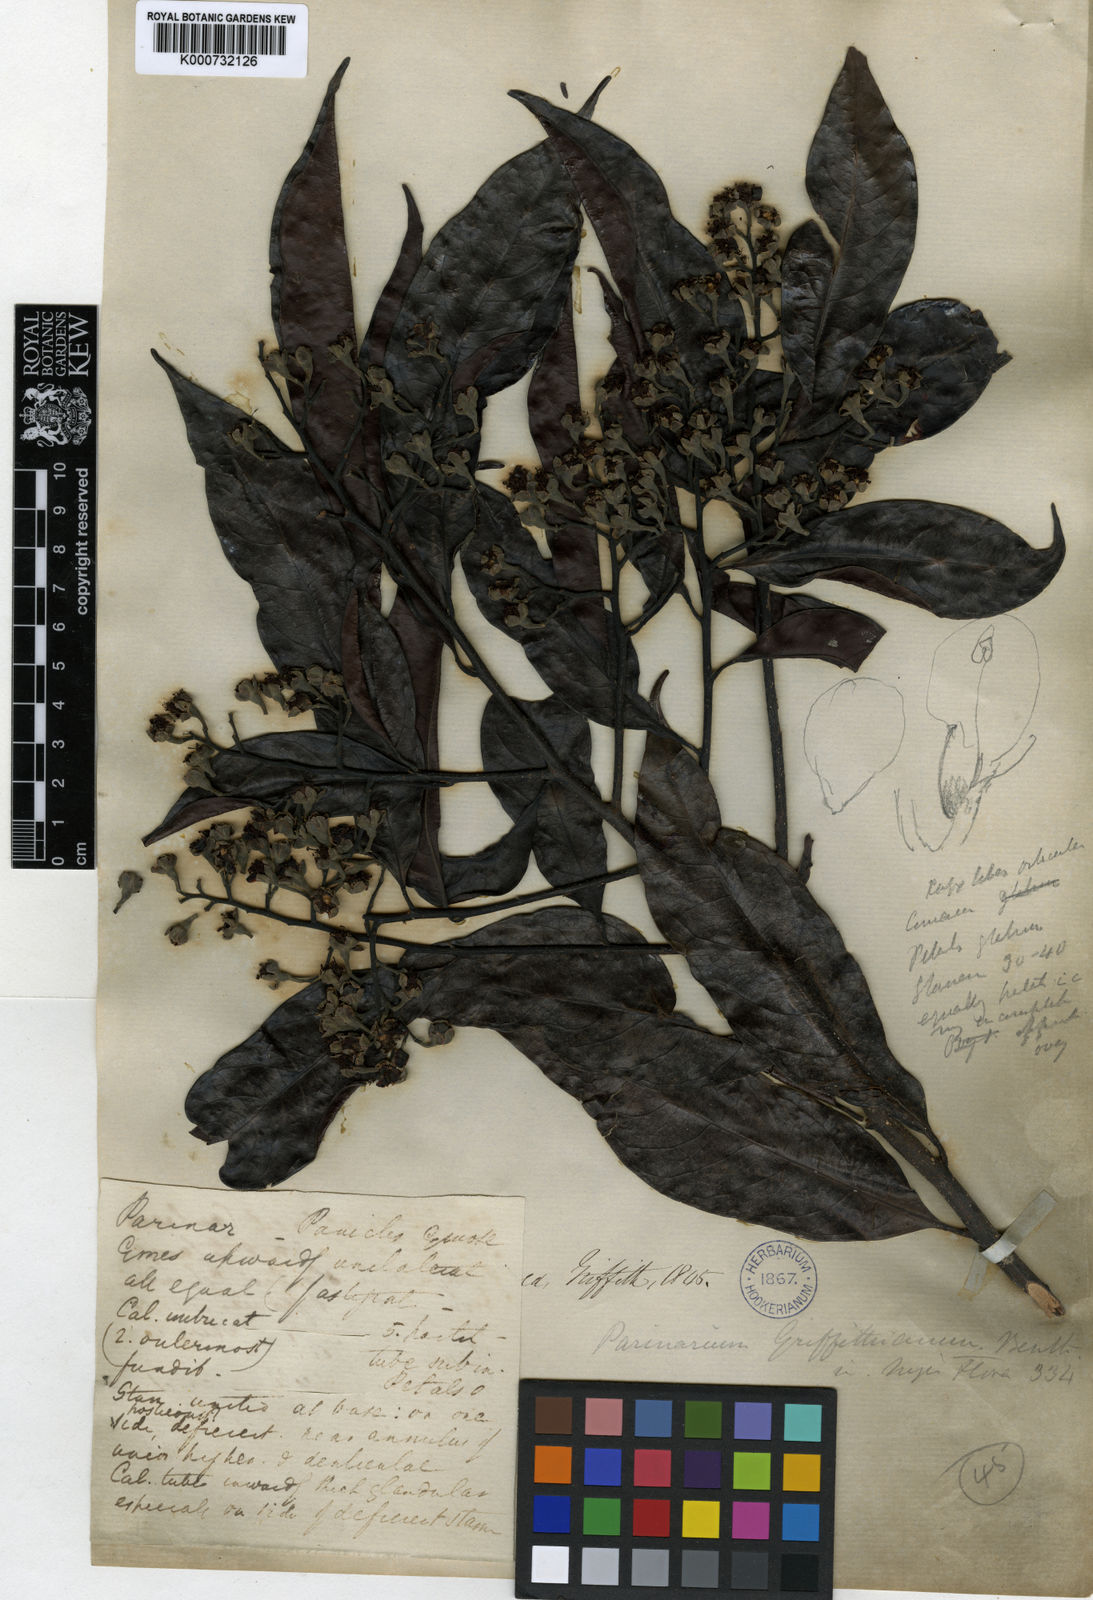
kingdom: Plantae
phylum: Tracheophyta
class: Magnoliopsida
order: Malpighiales
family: Chrysobalanaceae
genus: Maranthes
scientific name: Maranthes corymbosa
